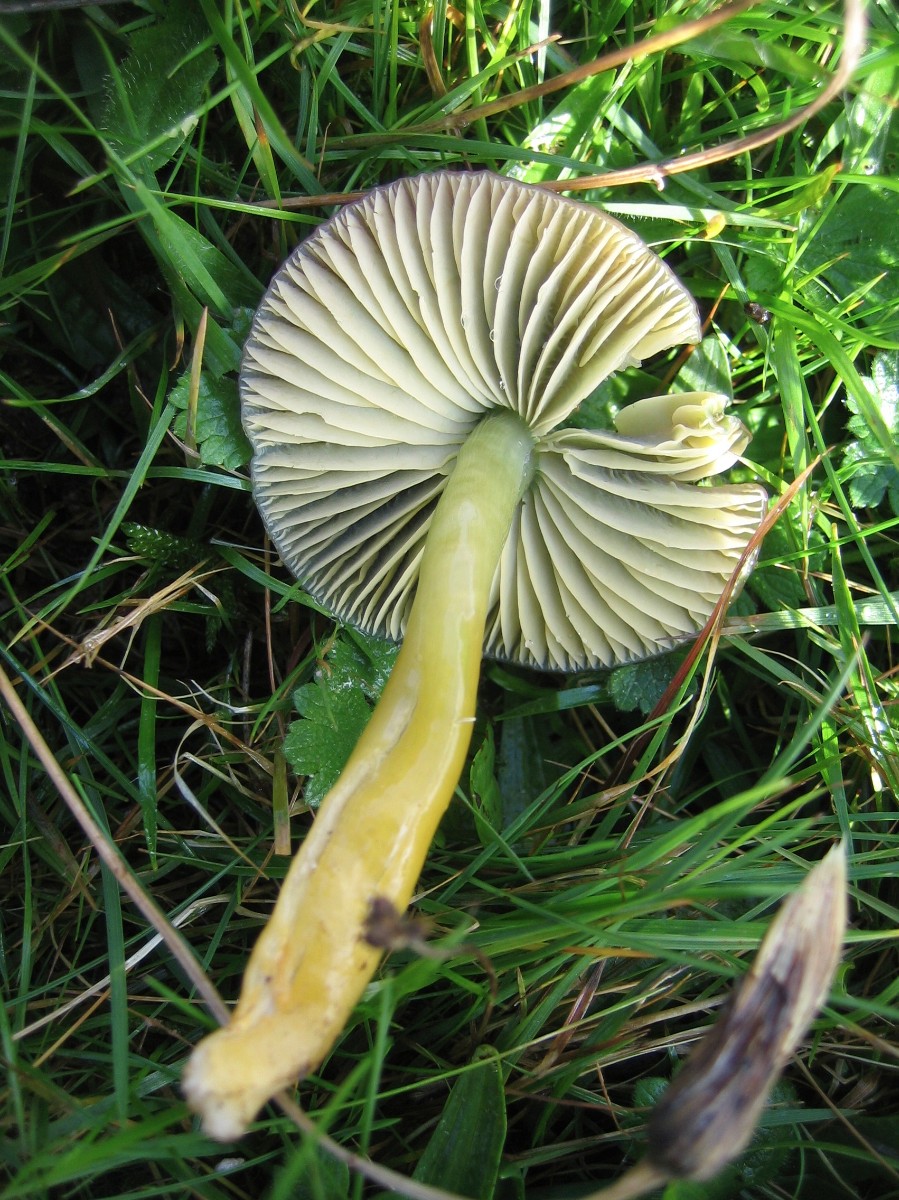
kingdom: Fungi
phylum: Basidiomycota
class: Agaricomycetes
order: Agaricales
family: Hygrophoraceae
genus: Gliophorus
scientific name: Gliophorus psittacinus
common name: papegøje-vokshat
